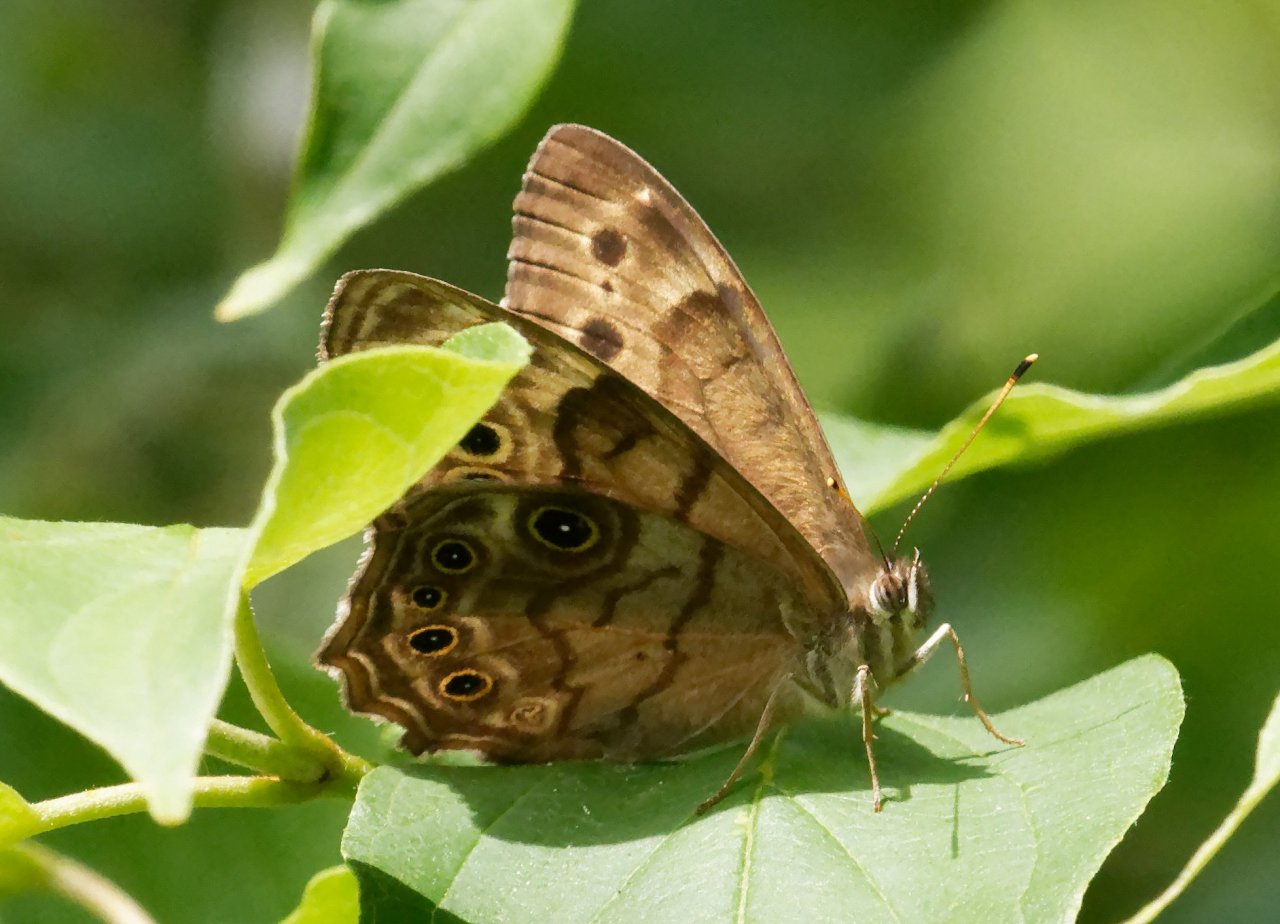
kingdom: Animalia
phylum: Arthropoda
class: Insecta
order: Lepidoptera
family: Nymphalidae
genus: Lethe
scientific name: Lethe anthedon
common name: Northern Pearly-Eye
